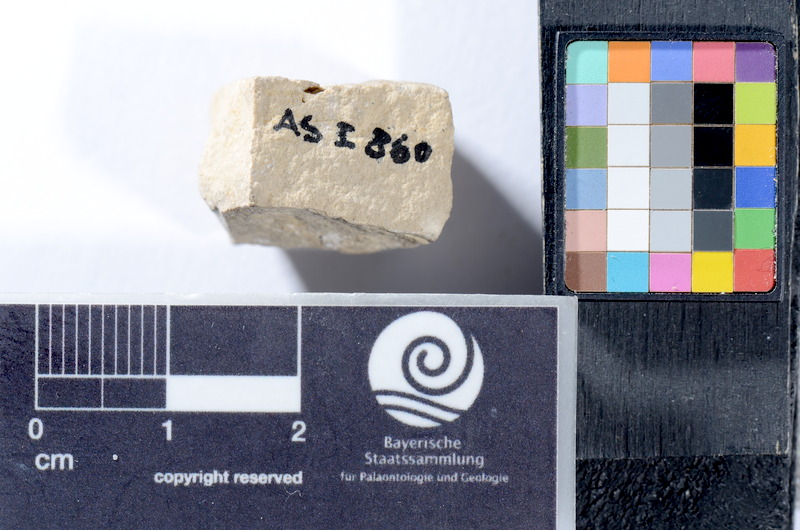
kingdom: Animalia
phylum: Chordata
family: Colobodontidae
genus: Colobodus
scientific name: Colobodus frequens
